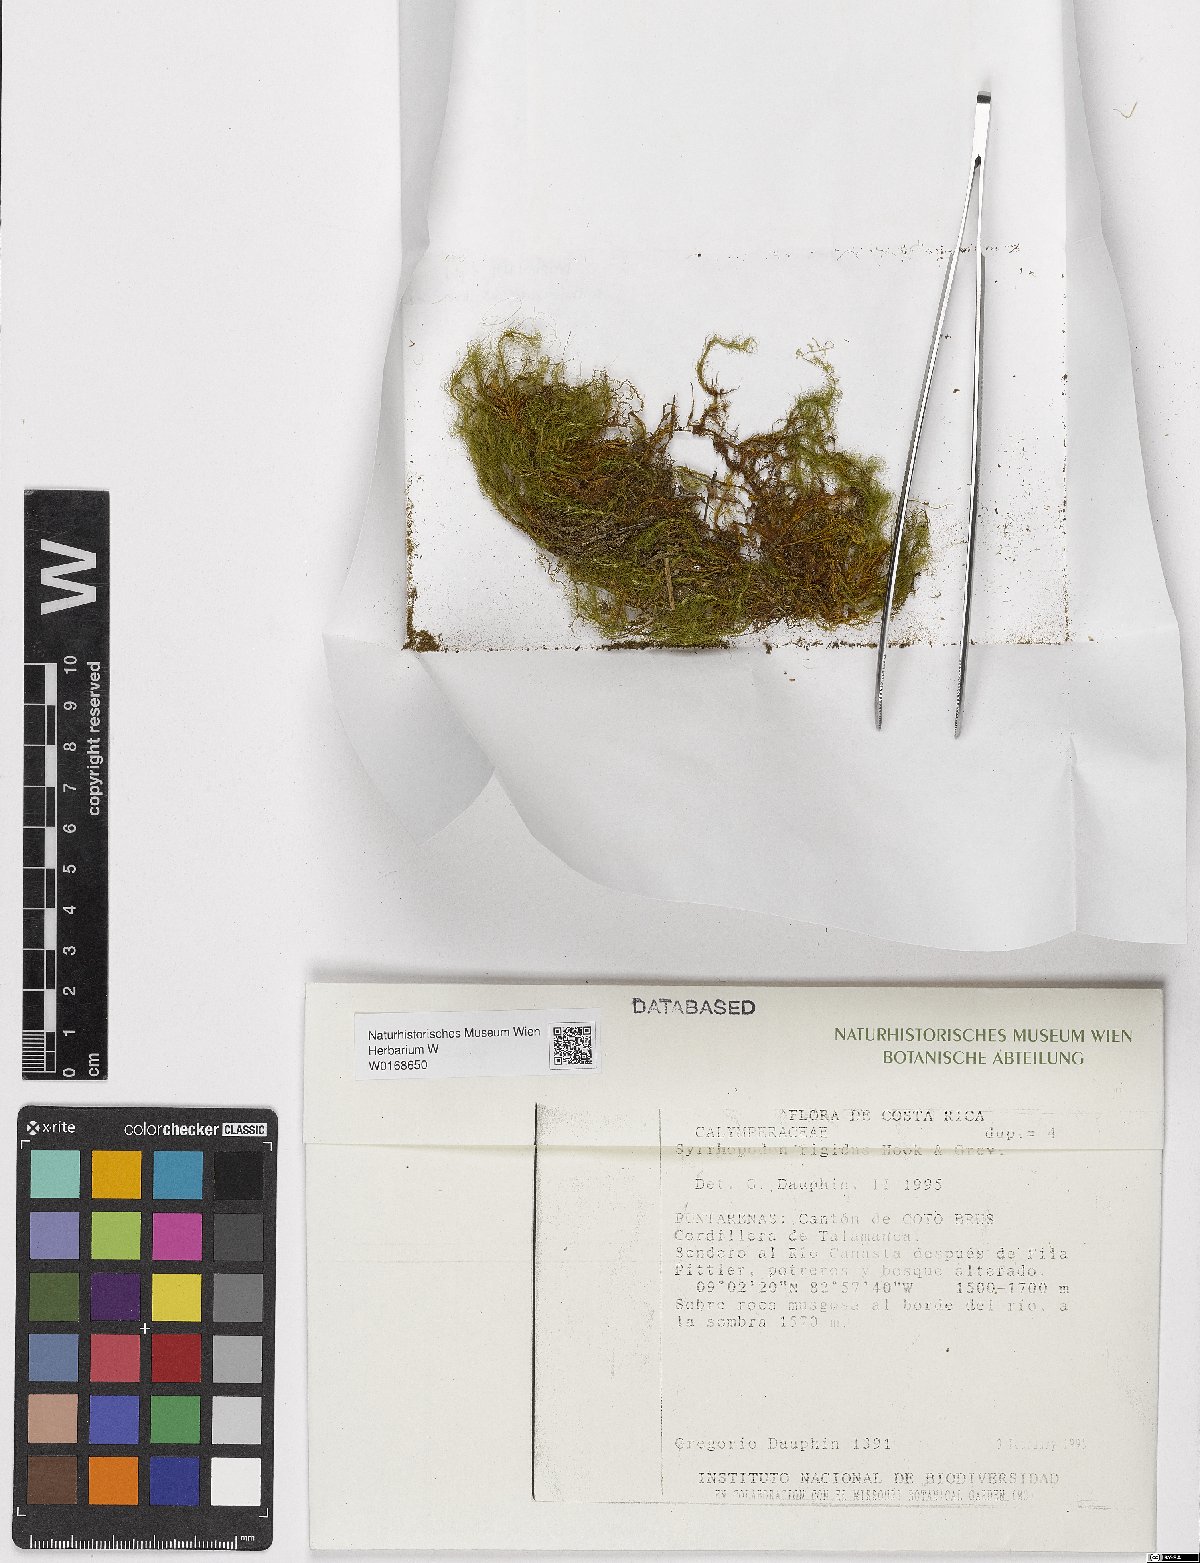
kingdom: Plantae
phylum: Bryophyta
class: Bryopsida
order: Dicranales
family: Calymperaceae
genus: Syrrhopodon
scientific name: Syrrhopodon rigidus
